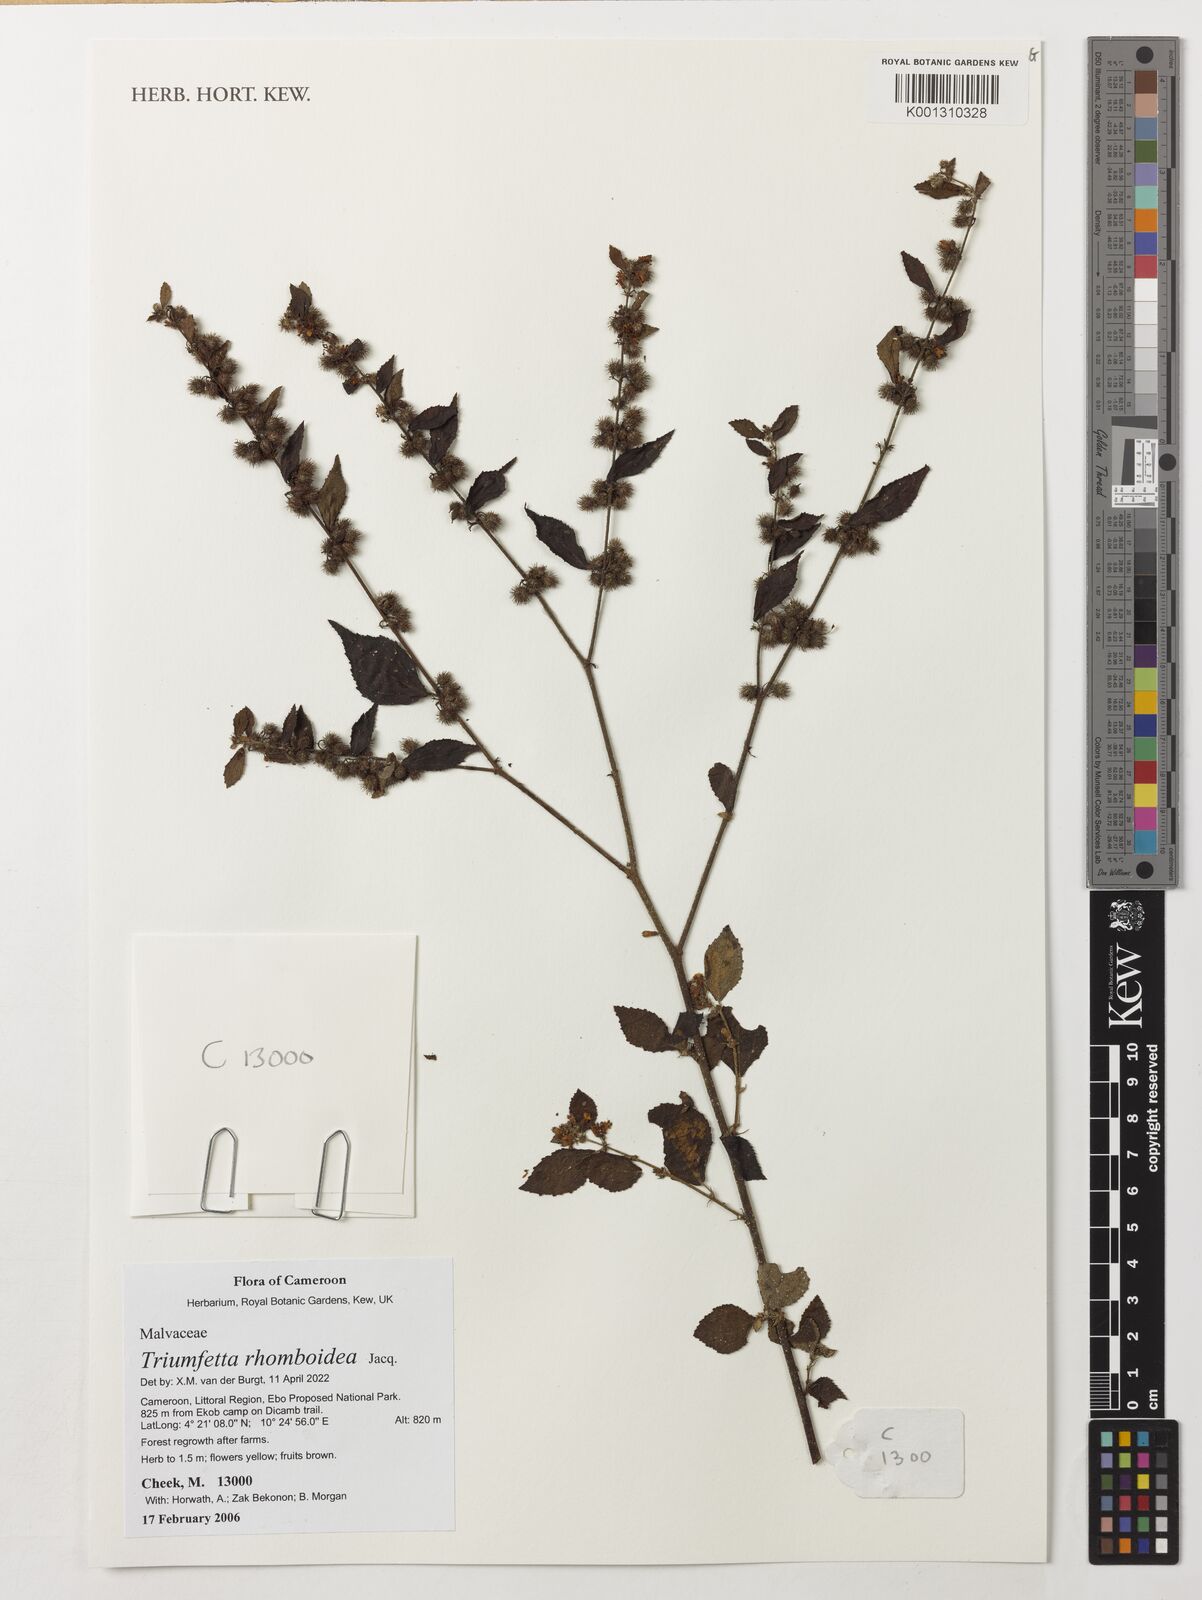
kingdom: Plantae
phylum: Tracheophyta
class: Magnoliopsida
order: Malvales
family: Malvaceae
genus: Triumfetta
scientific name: Triumfetta rhomboidea
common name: Diamond burbark
